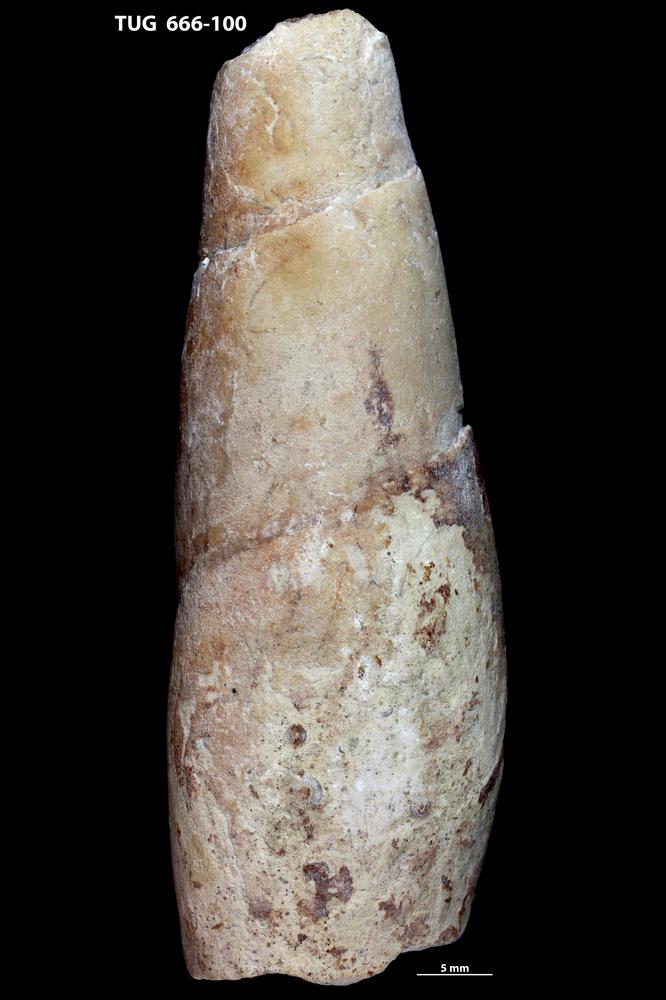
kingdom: Animalia
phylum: Mollusca
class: Gastropoda
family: Subulitidae
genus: Subulites
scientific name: Subulites
